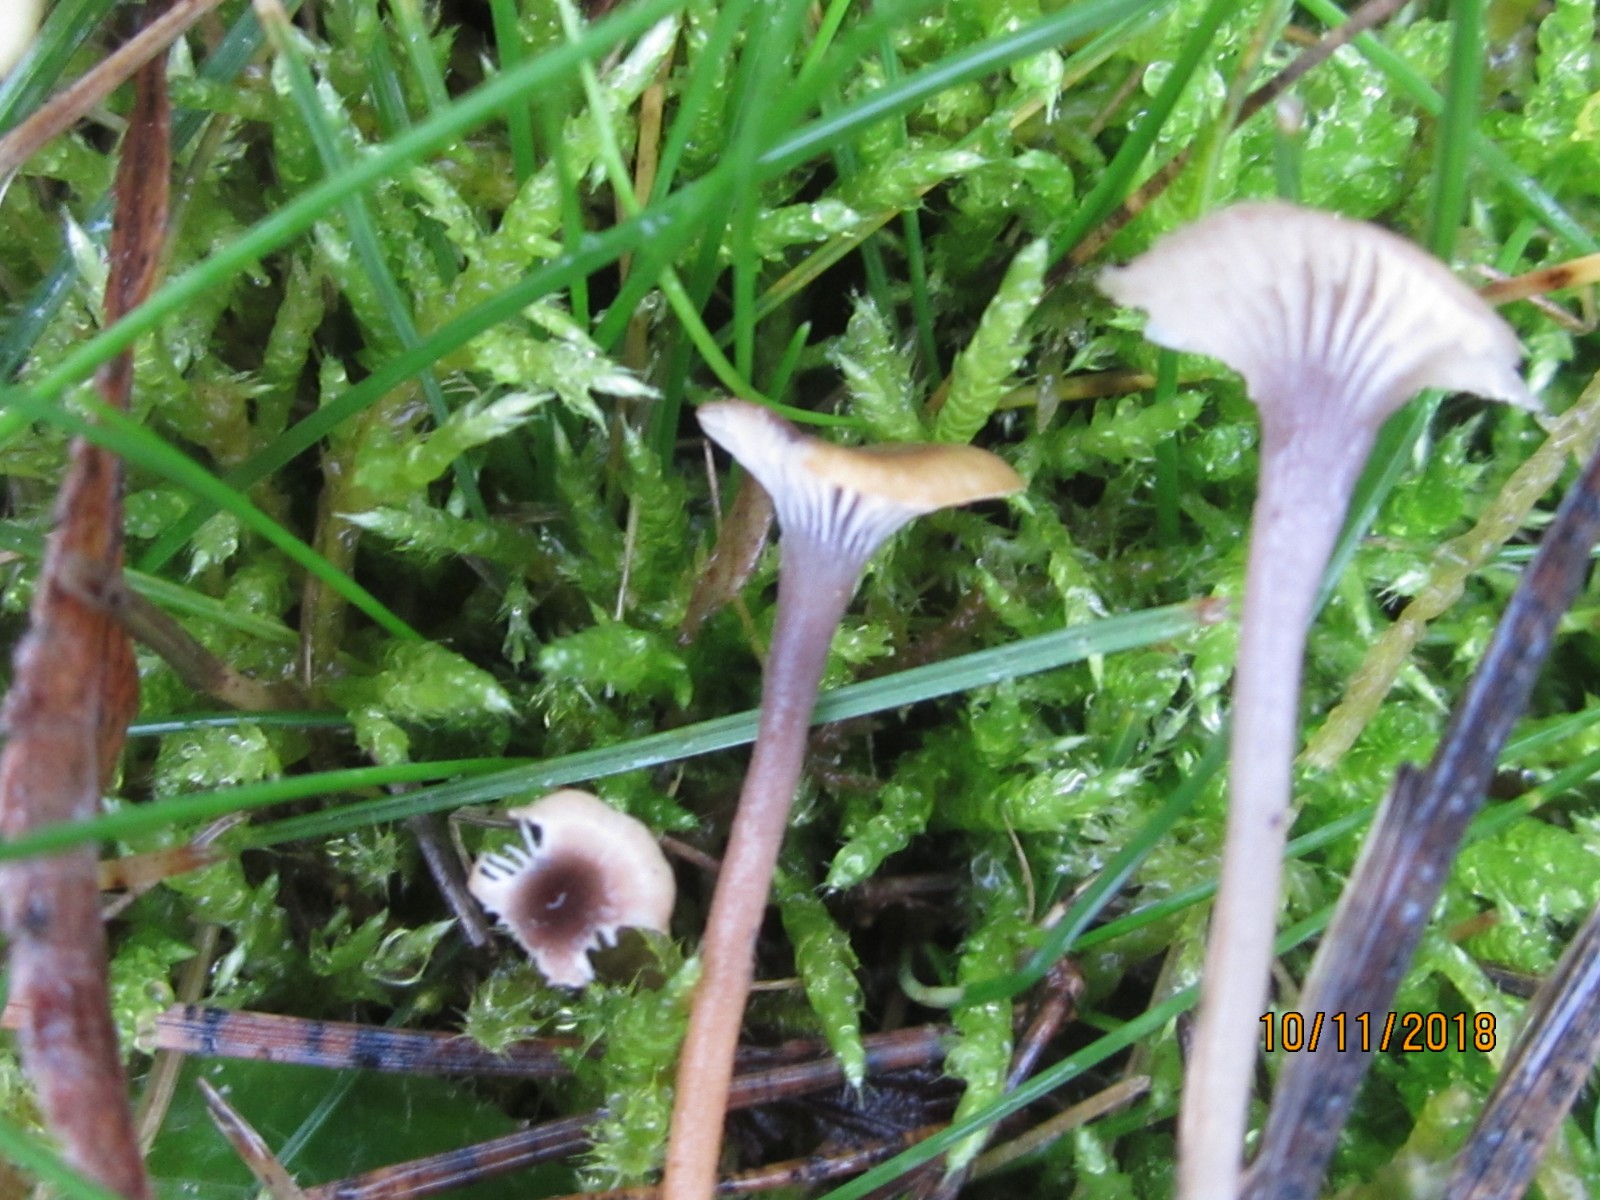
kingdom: Fungi
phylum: Basidiomycota
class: Agaricomycetes
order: Hymenochaetales
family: Rickenellaceae
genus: Rickenella
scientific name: Rickenella swartzii
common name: finstokket mosnavlehat
